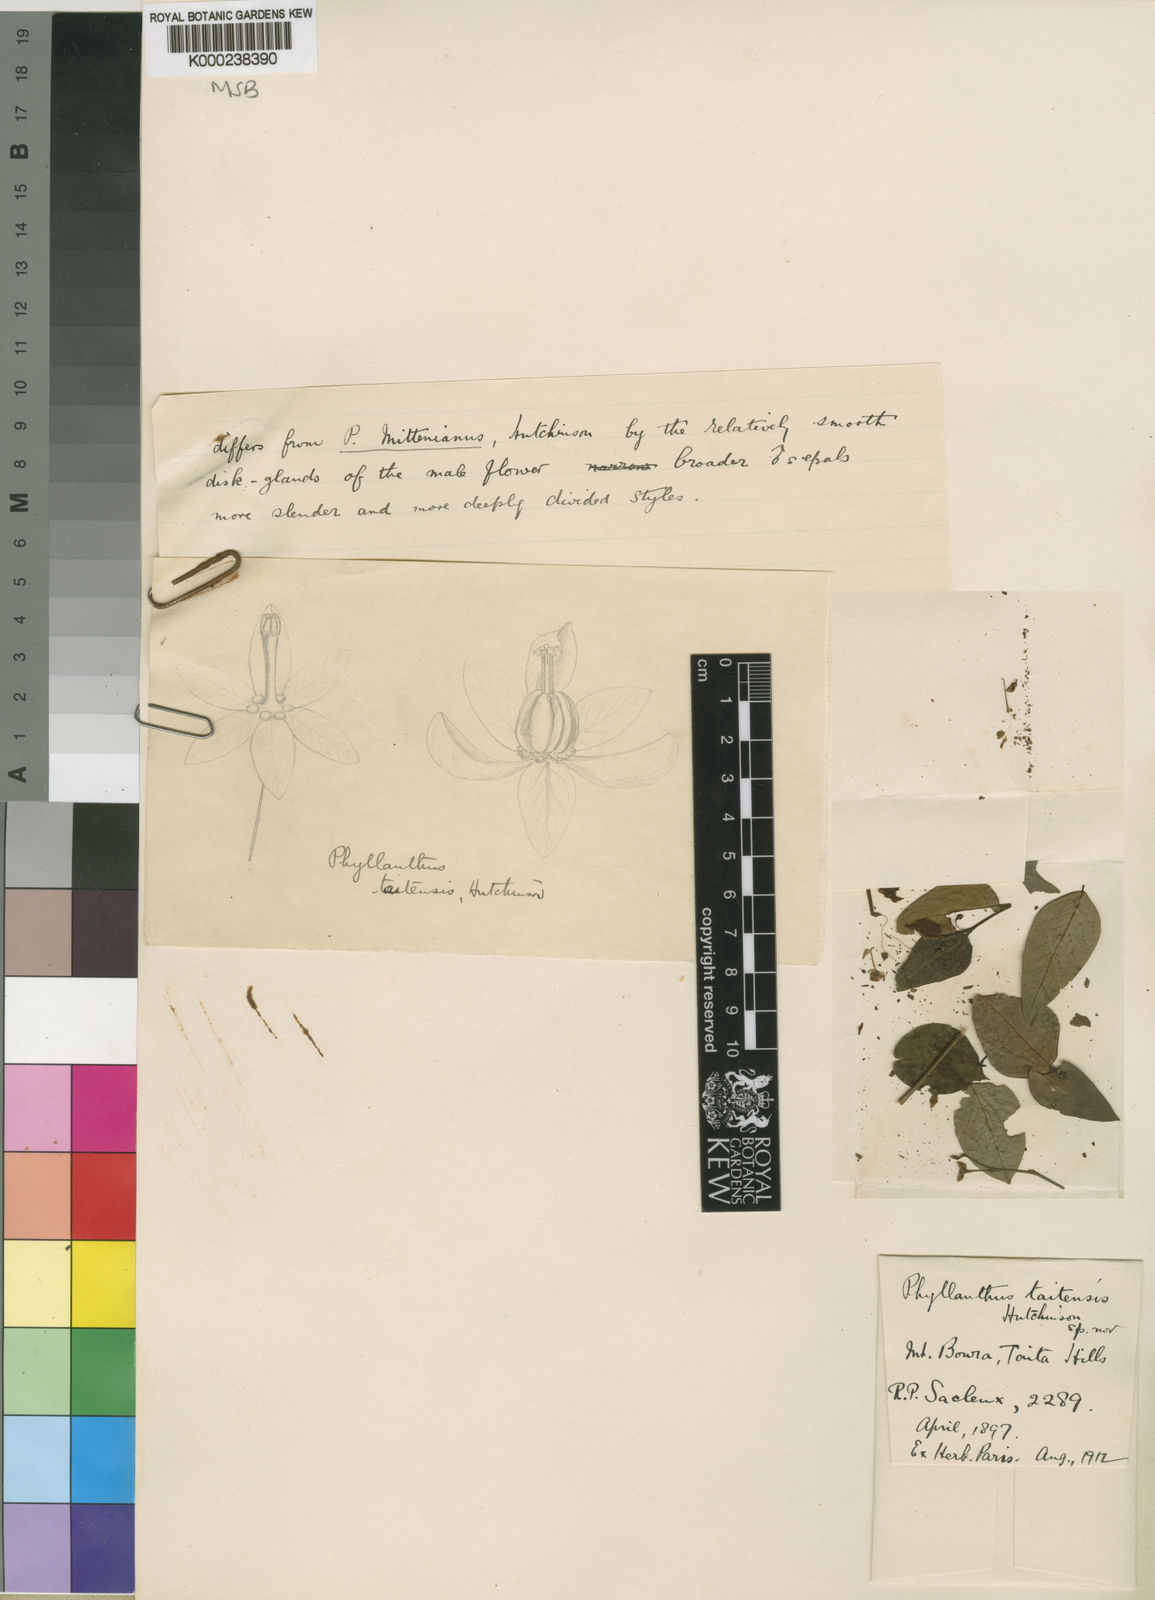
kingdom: Plantae
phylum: Tracheophyta
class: Magnoliopsida
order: Malpighiales
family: Phyllanthaceae
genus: Phyllanthus
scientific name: Phyllanthus
